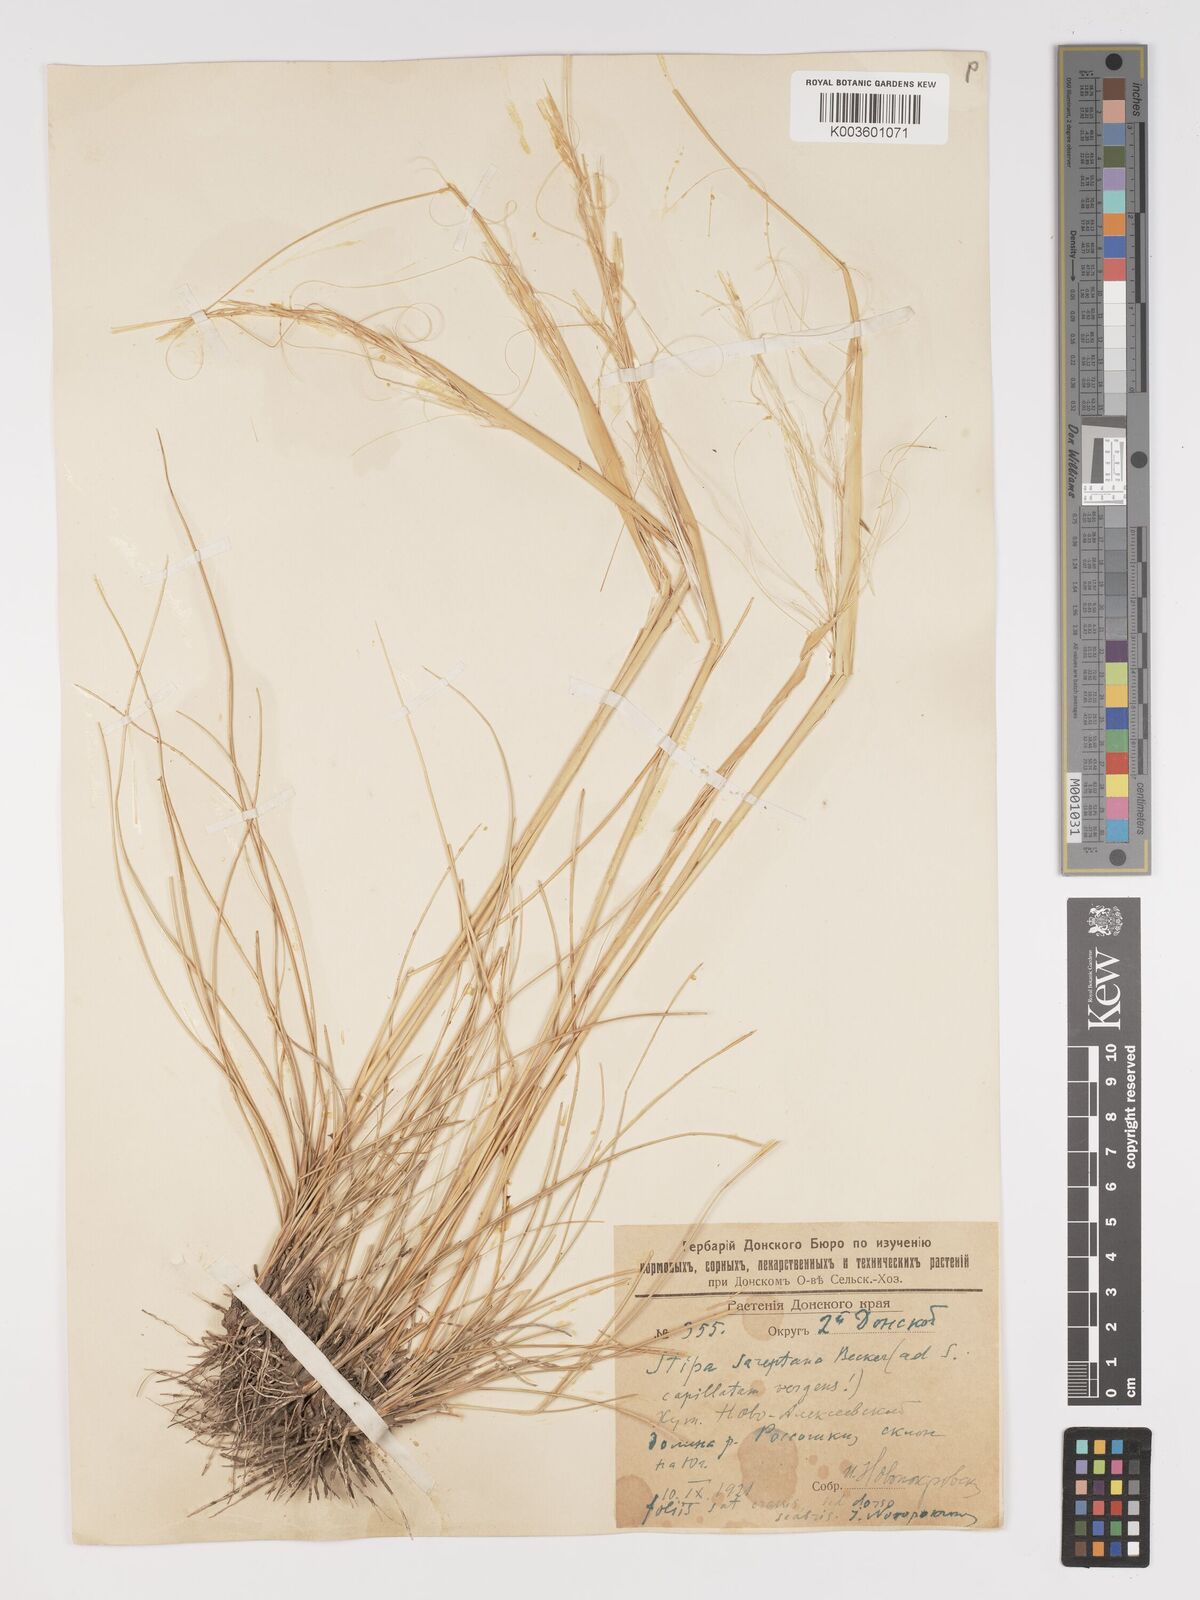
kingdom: Plantae
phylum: Tracheophyta
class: Liliopsida
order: Poales
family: Poaceae
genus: Stipa
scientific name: Stipa sareptana
